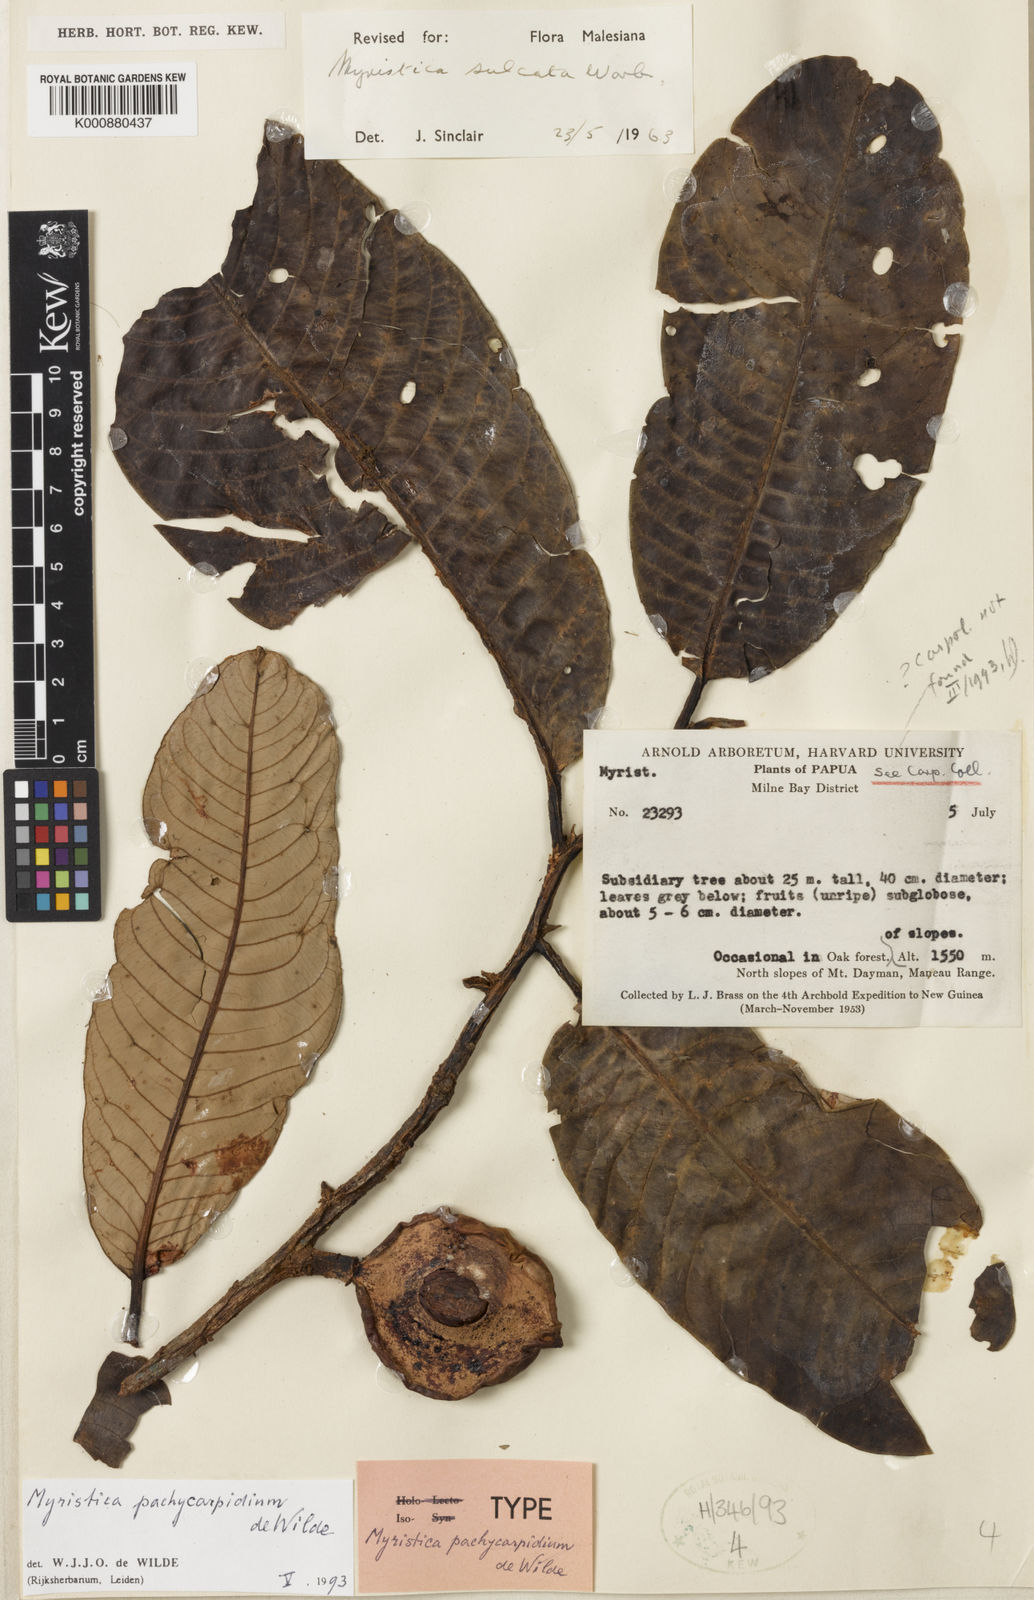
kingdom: Plantae
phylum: Tracheophyta
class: Magnoliopsida
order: Magnoliales
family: Myristicaceae
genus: Myristica
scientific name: Myristica pachycarpidia
